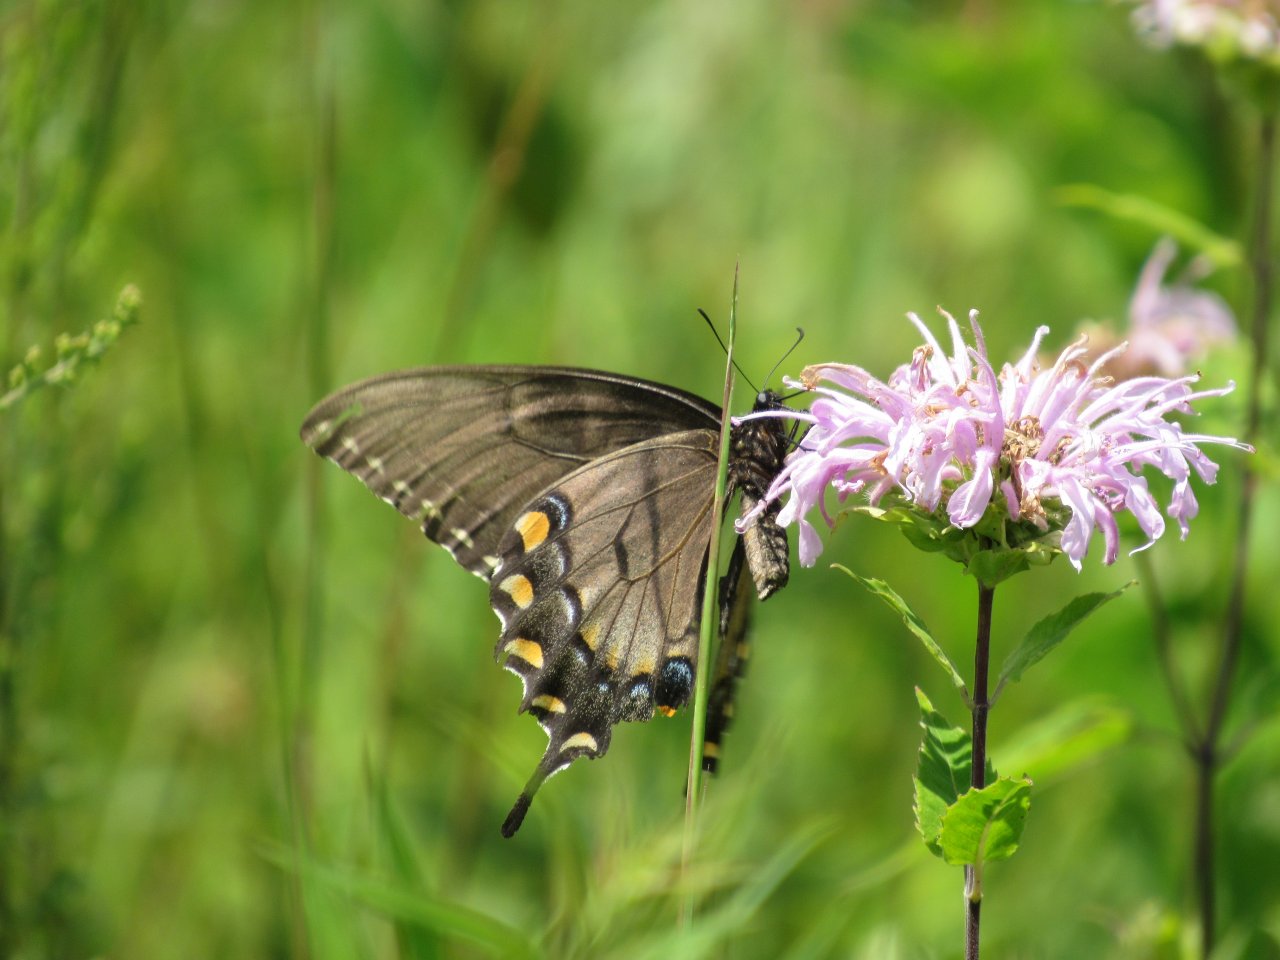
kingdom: Animalia
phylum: Arthropoda
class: Insecta
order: Lepidoptera
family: Papilionidae
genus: Pterourus
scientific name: Pterourus glaucus
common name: Eastern Tiger Swallowtail
